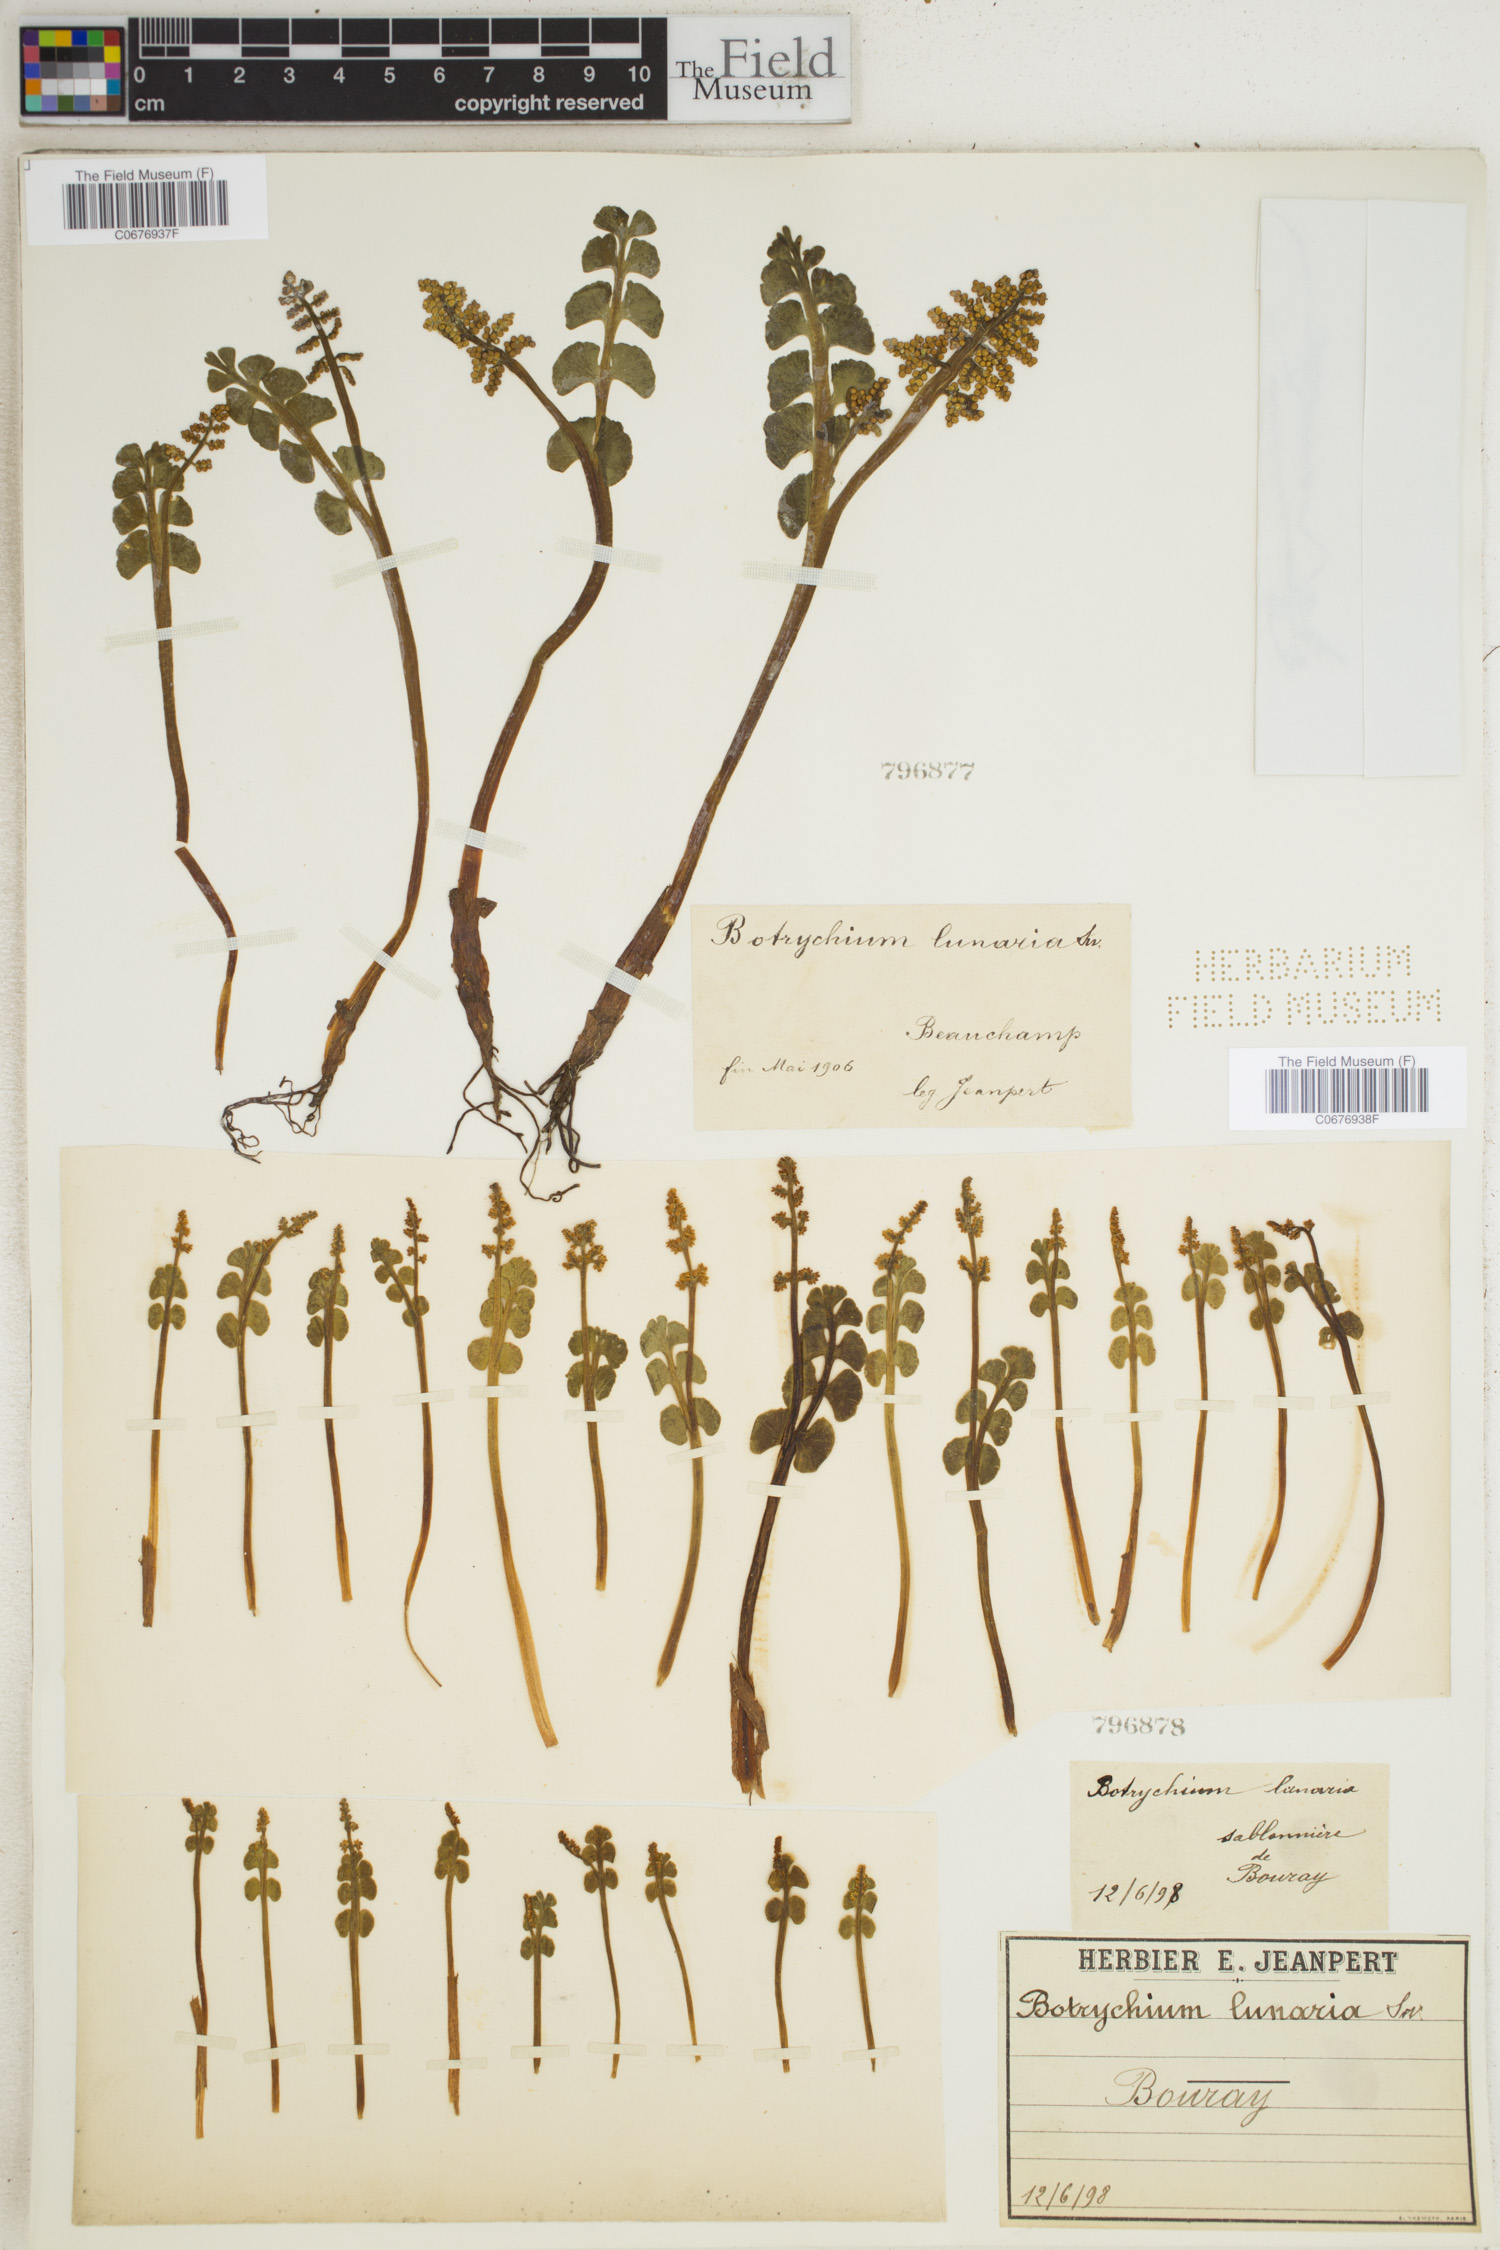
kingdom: Plantae
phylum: Tracheophyta
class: Polypodiopsida
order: Ophioglossales
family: Ophioglossaceae
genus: Botrychium
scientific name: Botrychium lunaria
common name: Moonwort
